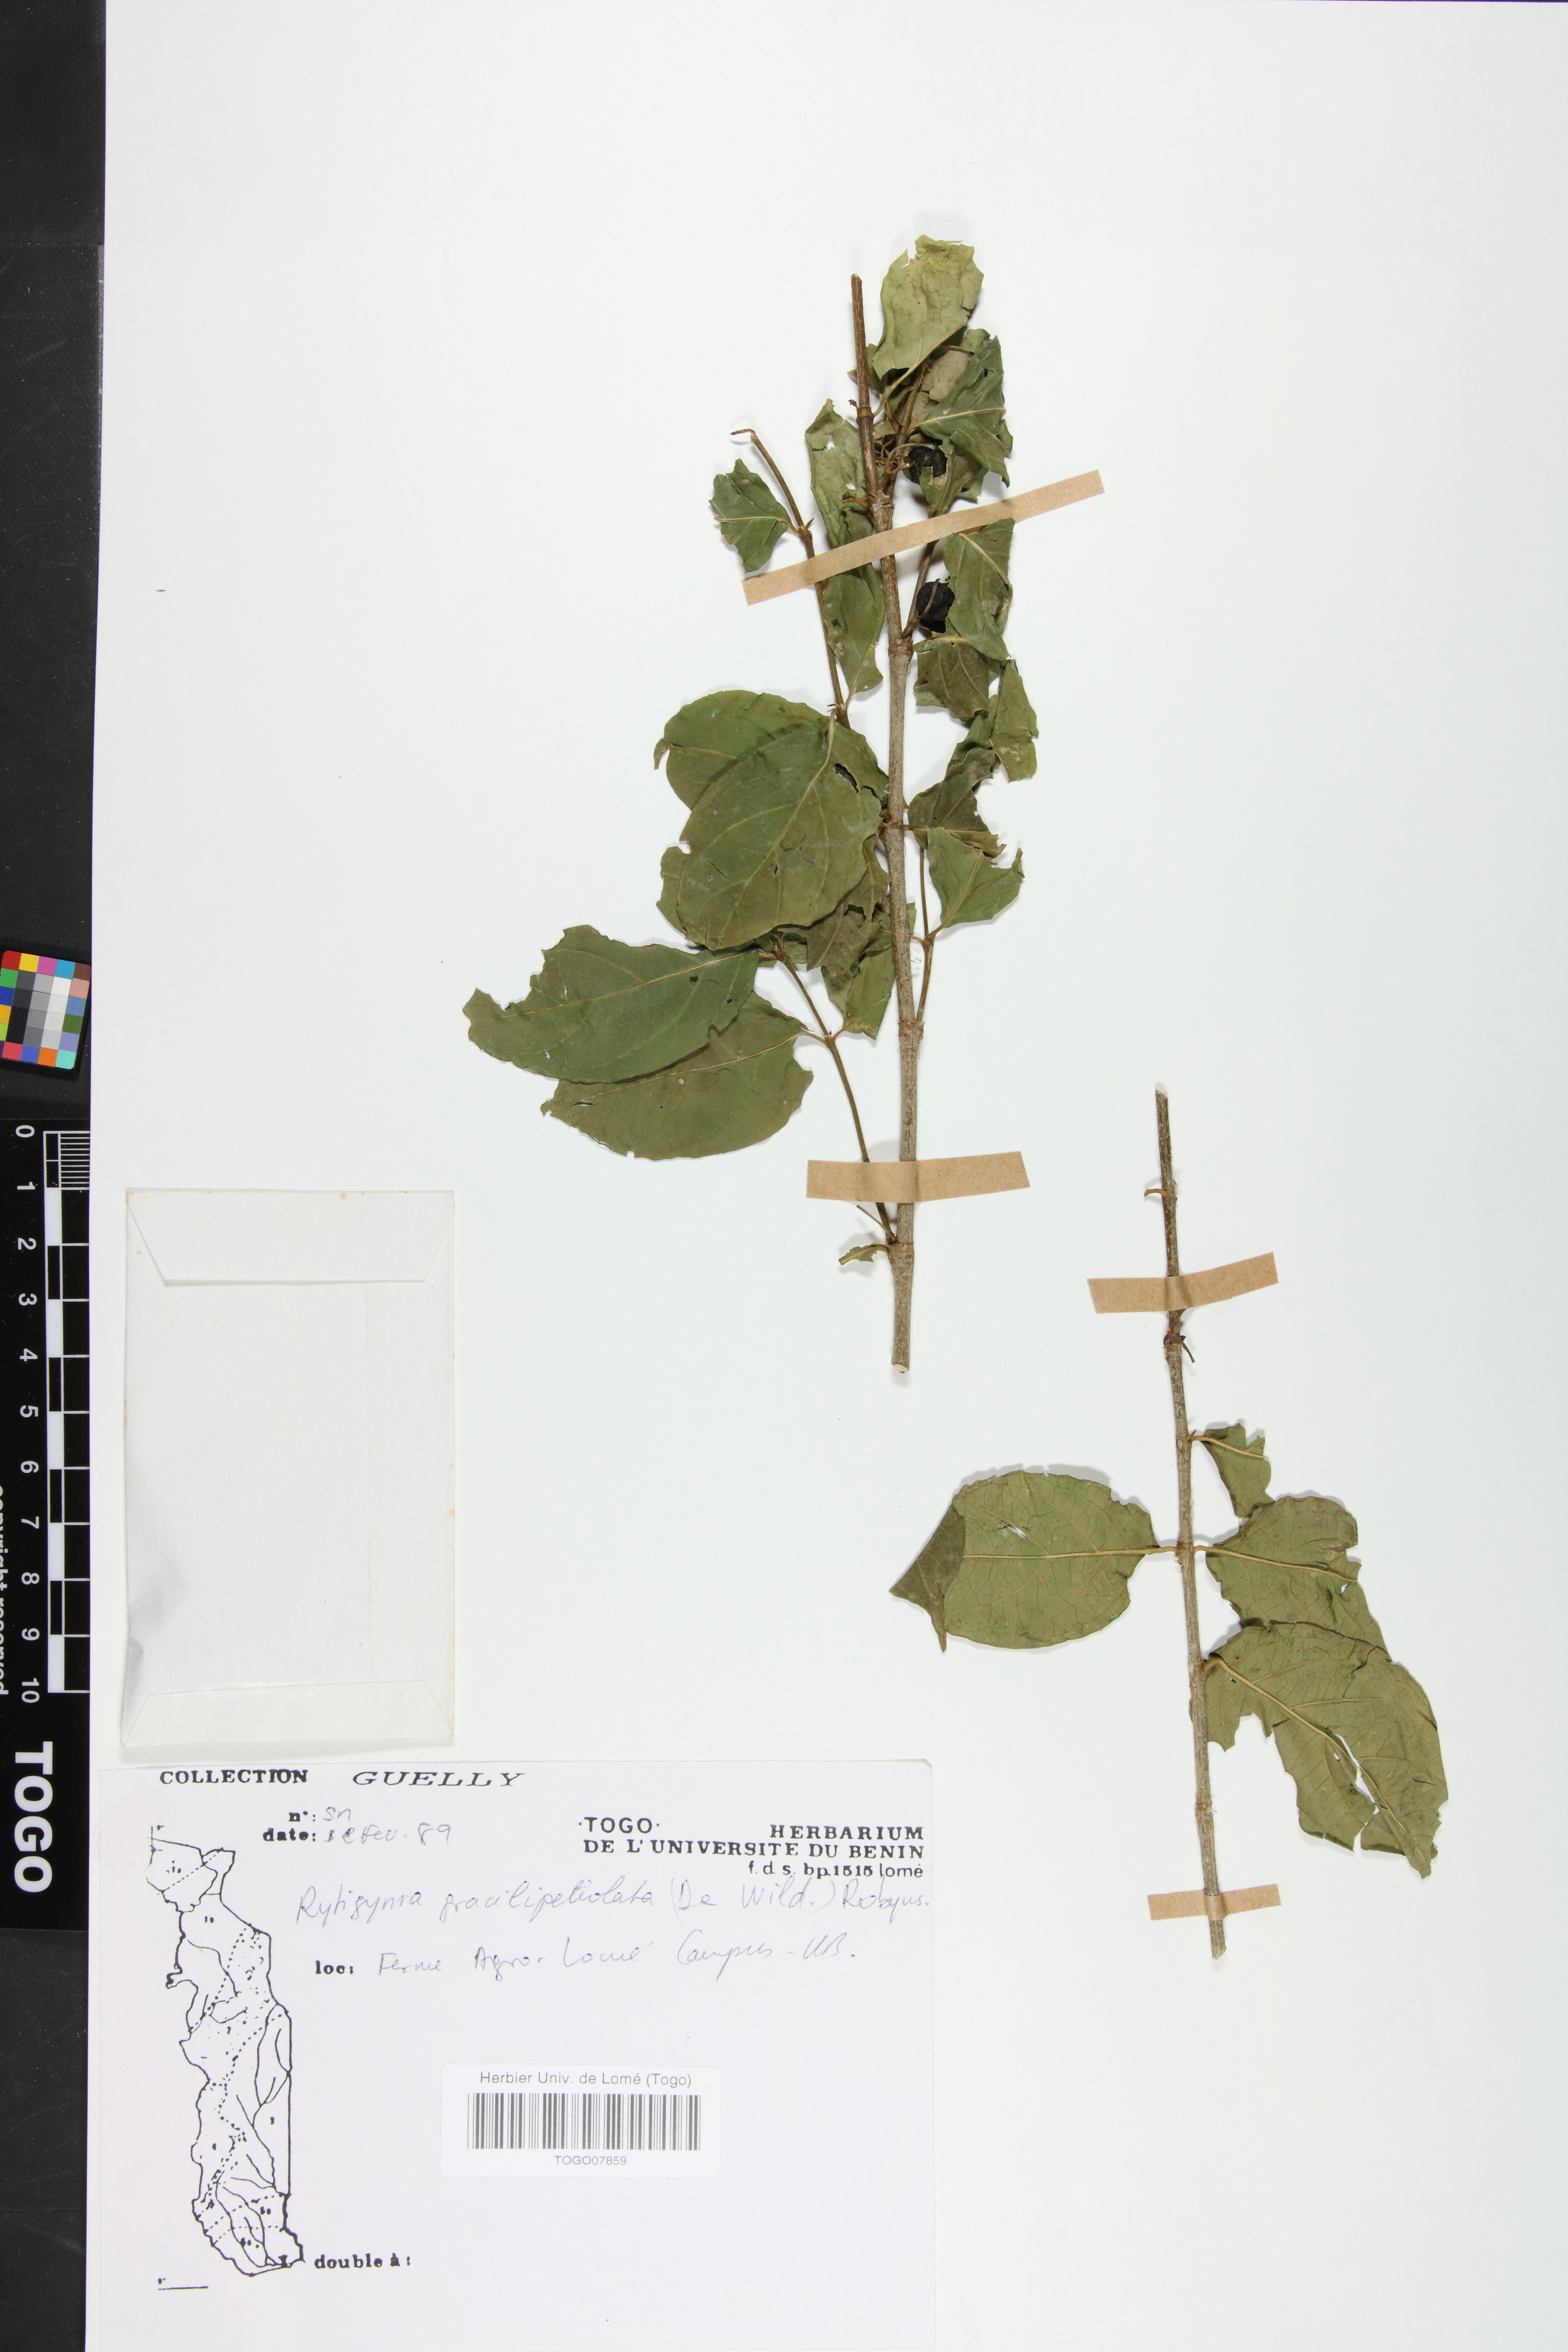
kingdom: Plantae
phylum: Tracheophyta
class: Magnoliopsida
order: Gentianales
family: Rubiaceae
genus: Rytigynia
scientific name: Rytigynia gracilipetiolata
